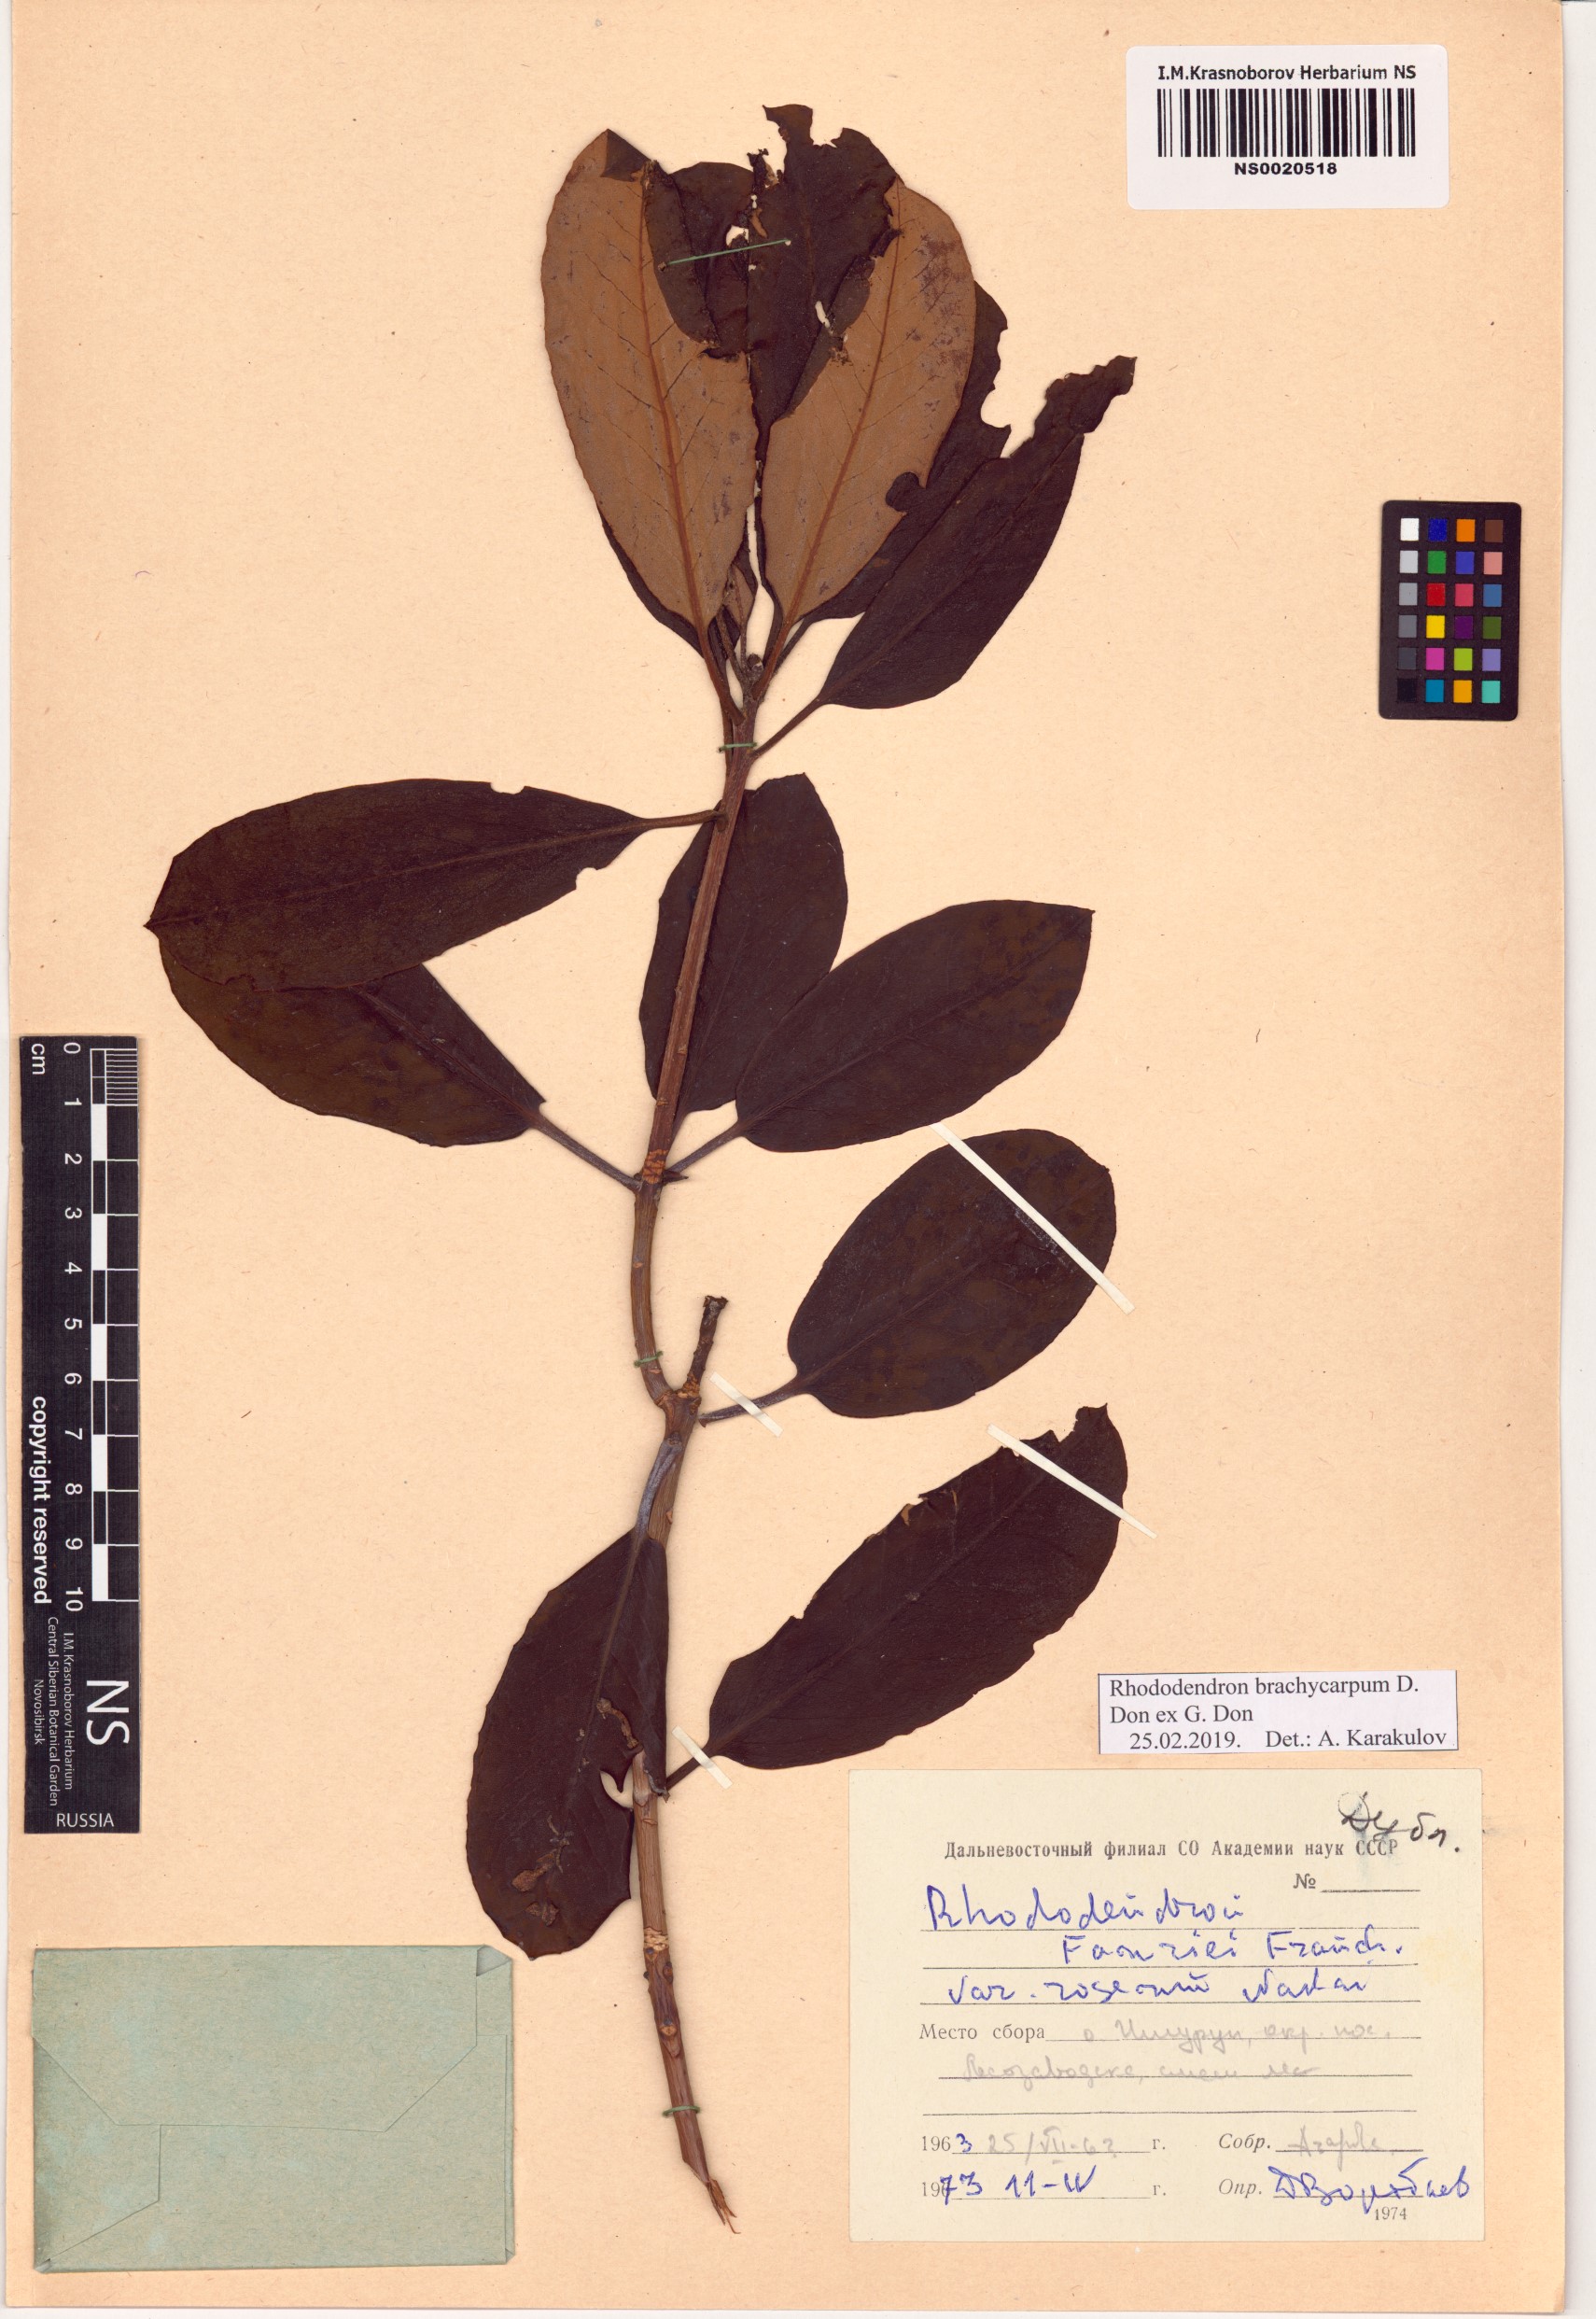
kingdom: Plantae
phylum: Tracheophyta
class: Magnoliopsida
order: Ericales
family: Ericaceae
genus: Rhododendron
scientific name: Rhododendron brachycarpum
